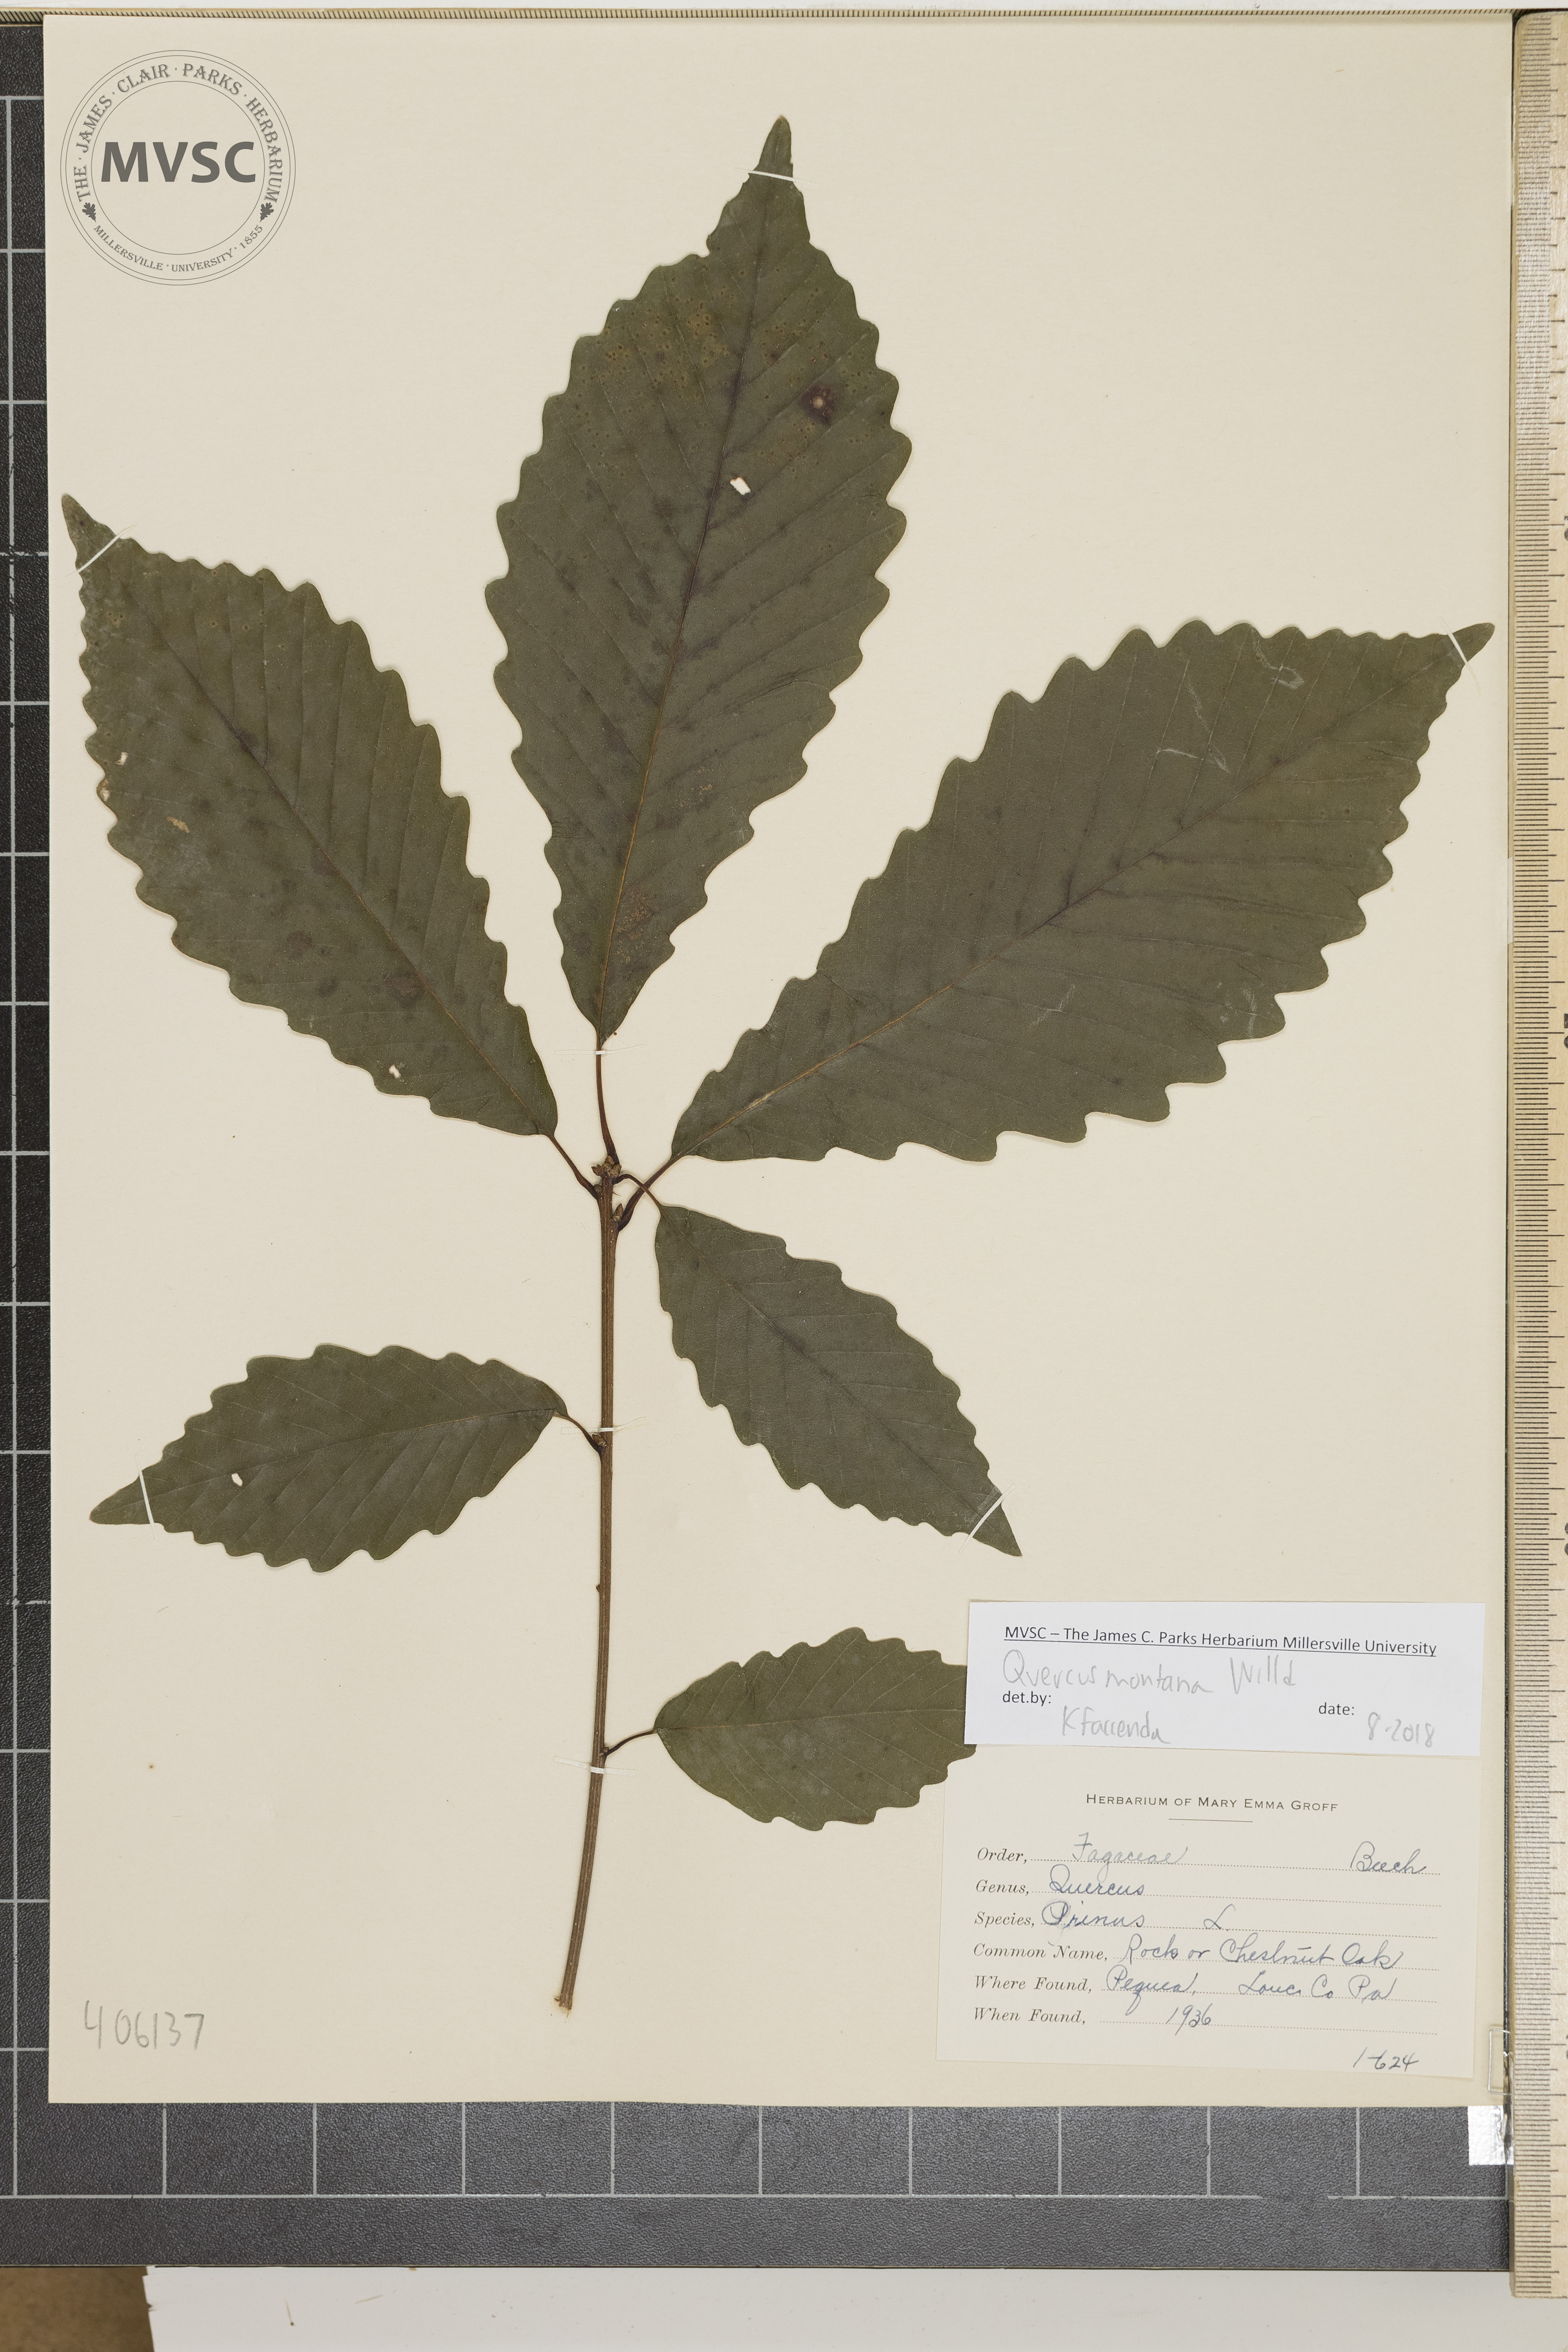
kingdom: Plantae
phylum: Tracheophyta
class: Magnoliopsida
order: Fagales
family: Fagaceae
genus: Quercus
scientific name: Quercus montana
